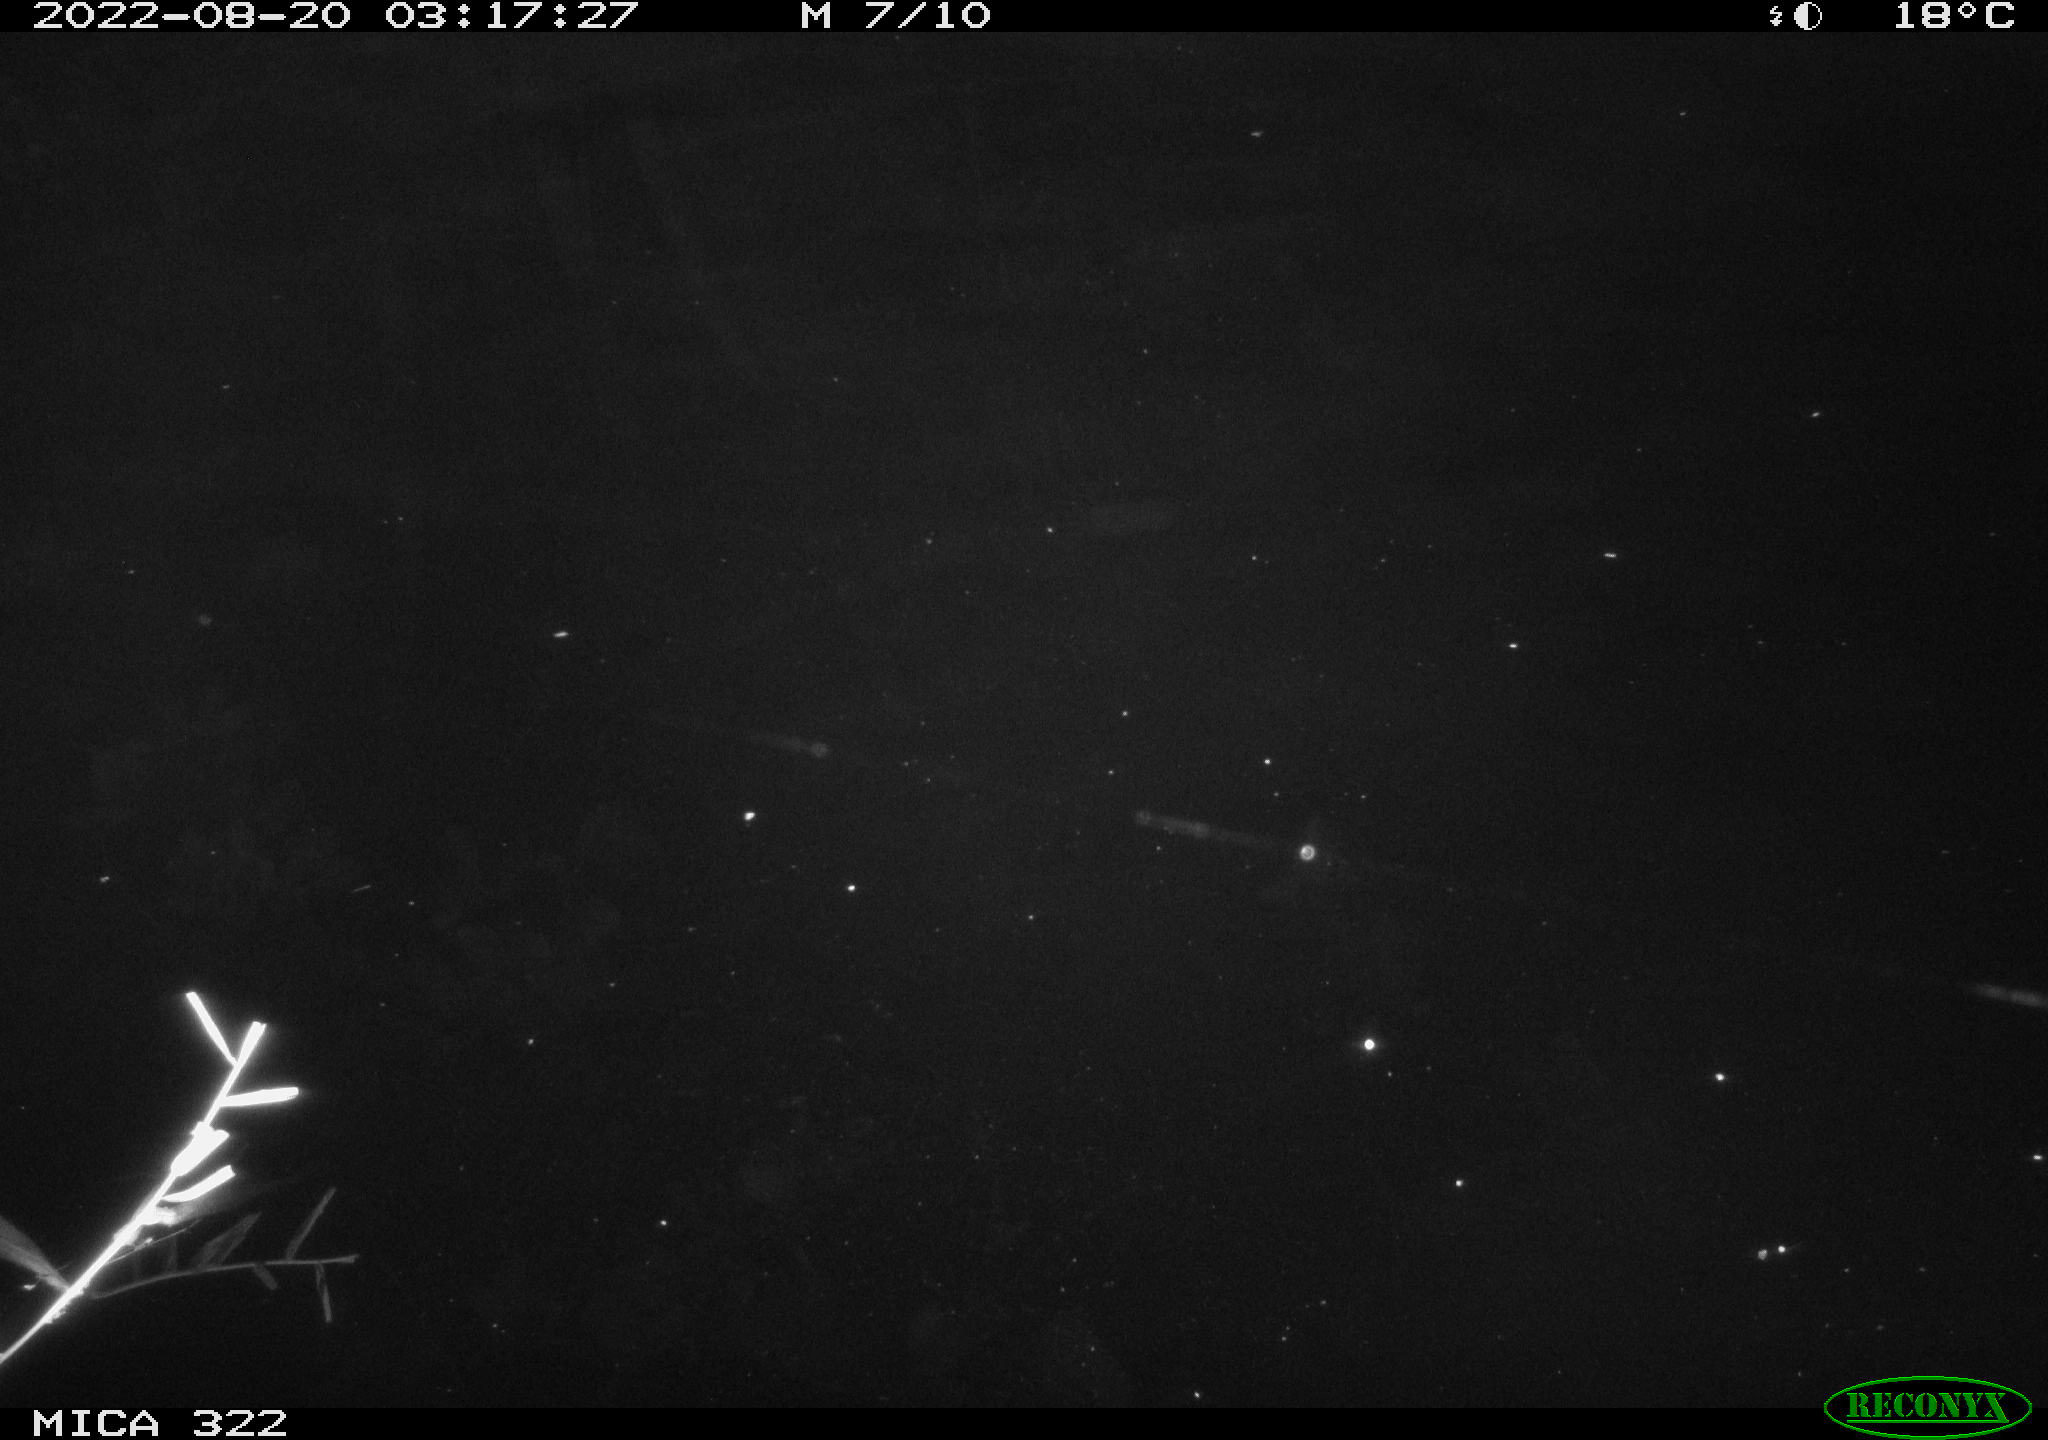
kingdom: Animalia
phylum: Chordata
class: Aves
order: Anseriformes
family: Anatidae
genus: Anas
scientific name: Anas platyrhynchos
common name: Mallard
